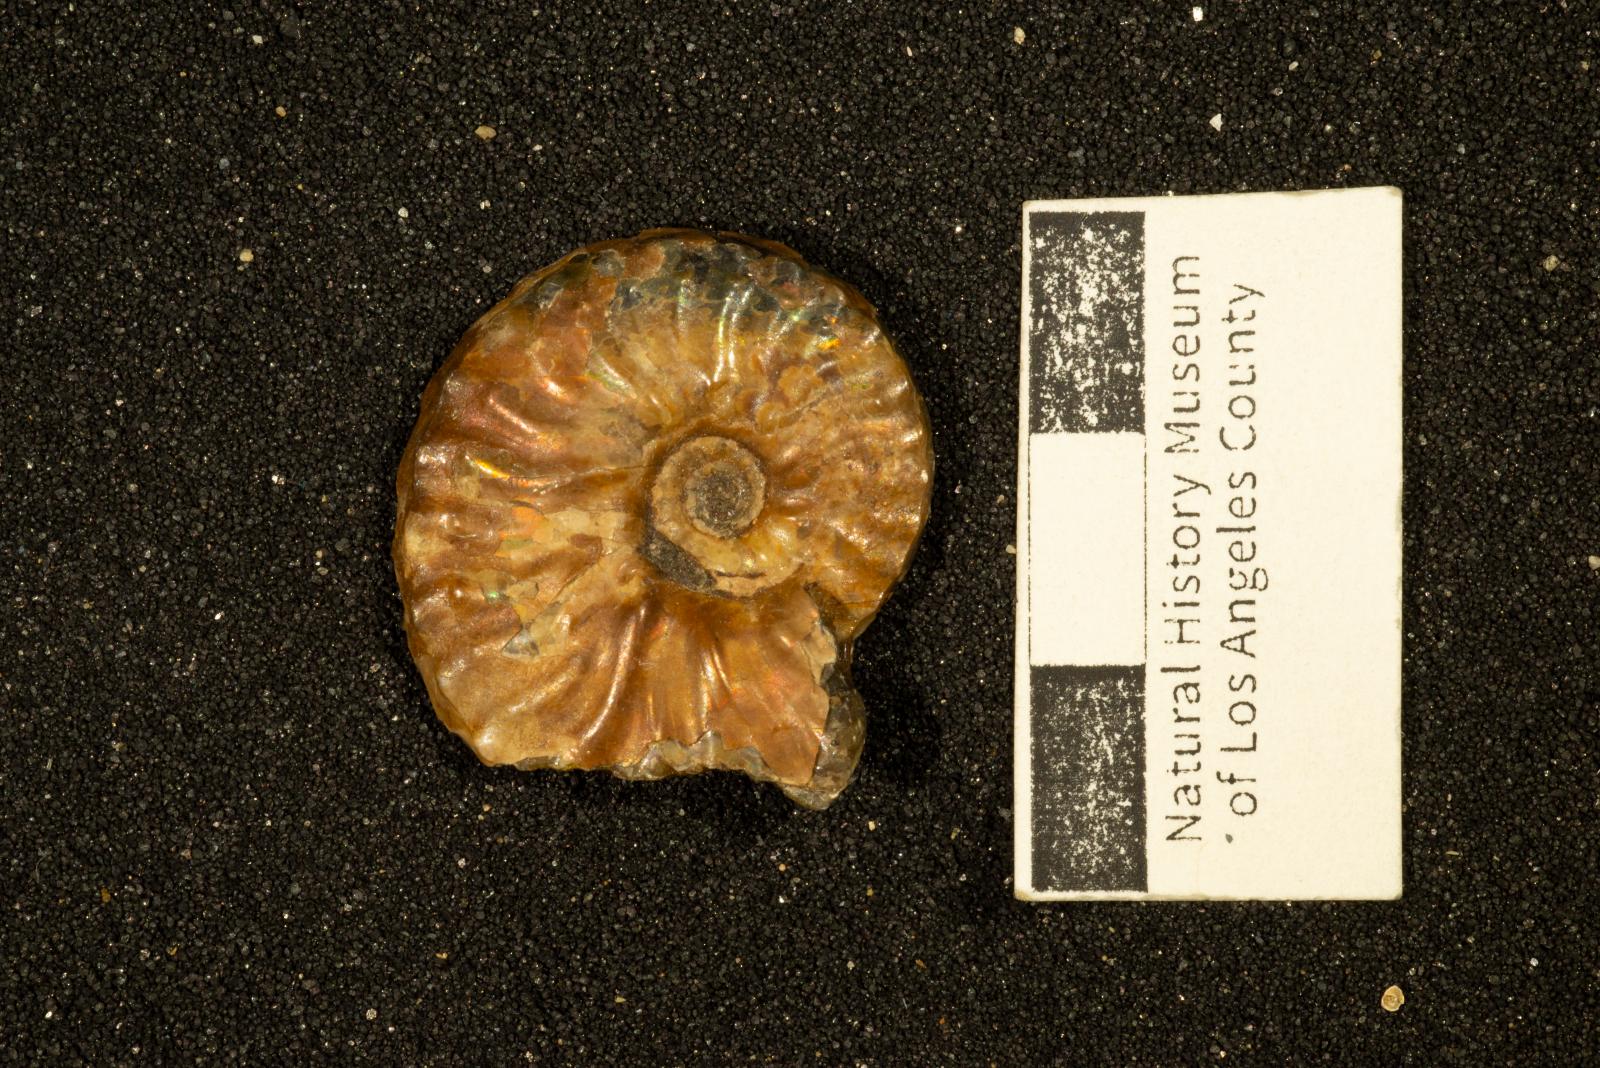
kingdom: Animalia
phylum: Mollusca
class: Cephalopoda
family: Collignoniceratidae
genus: Subprionocyclus
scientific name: Subprionocyclus
